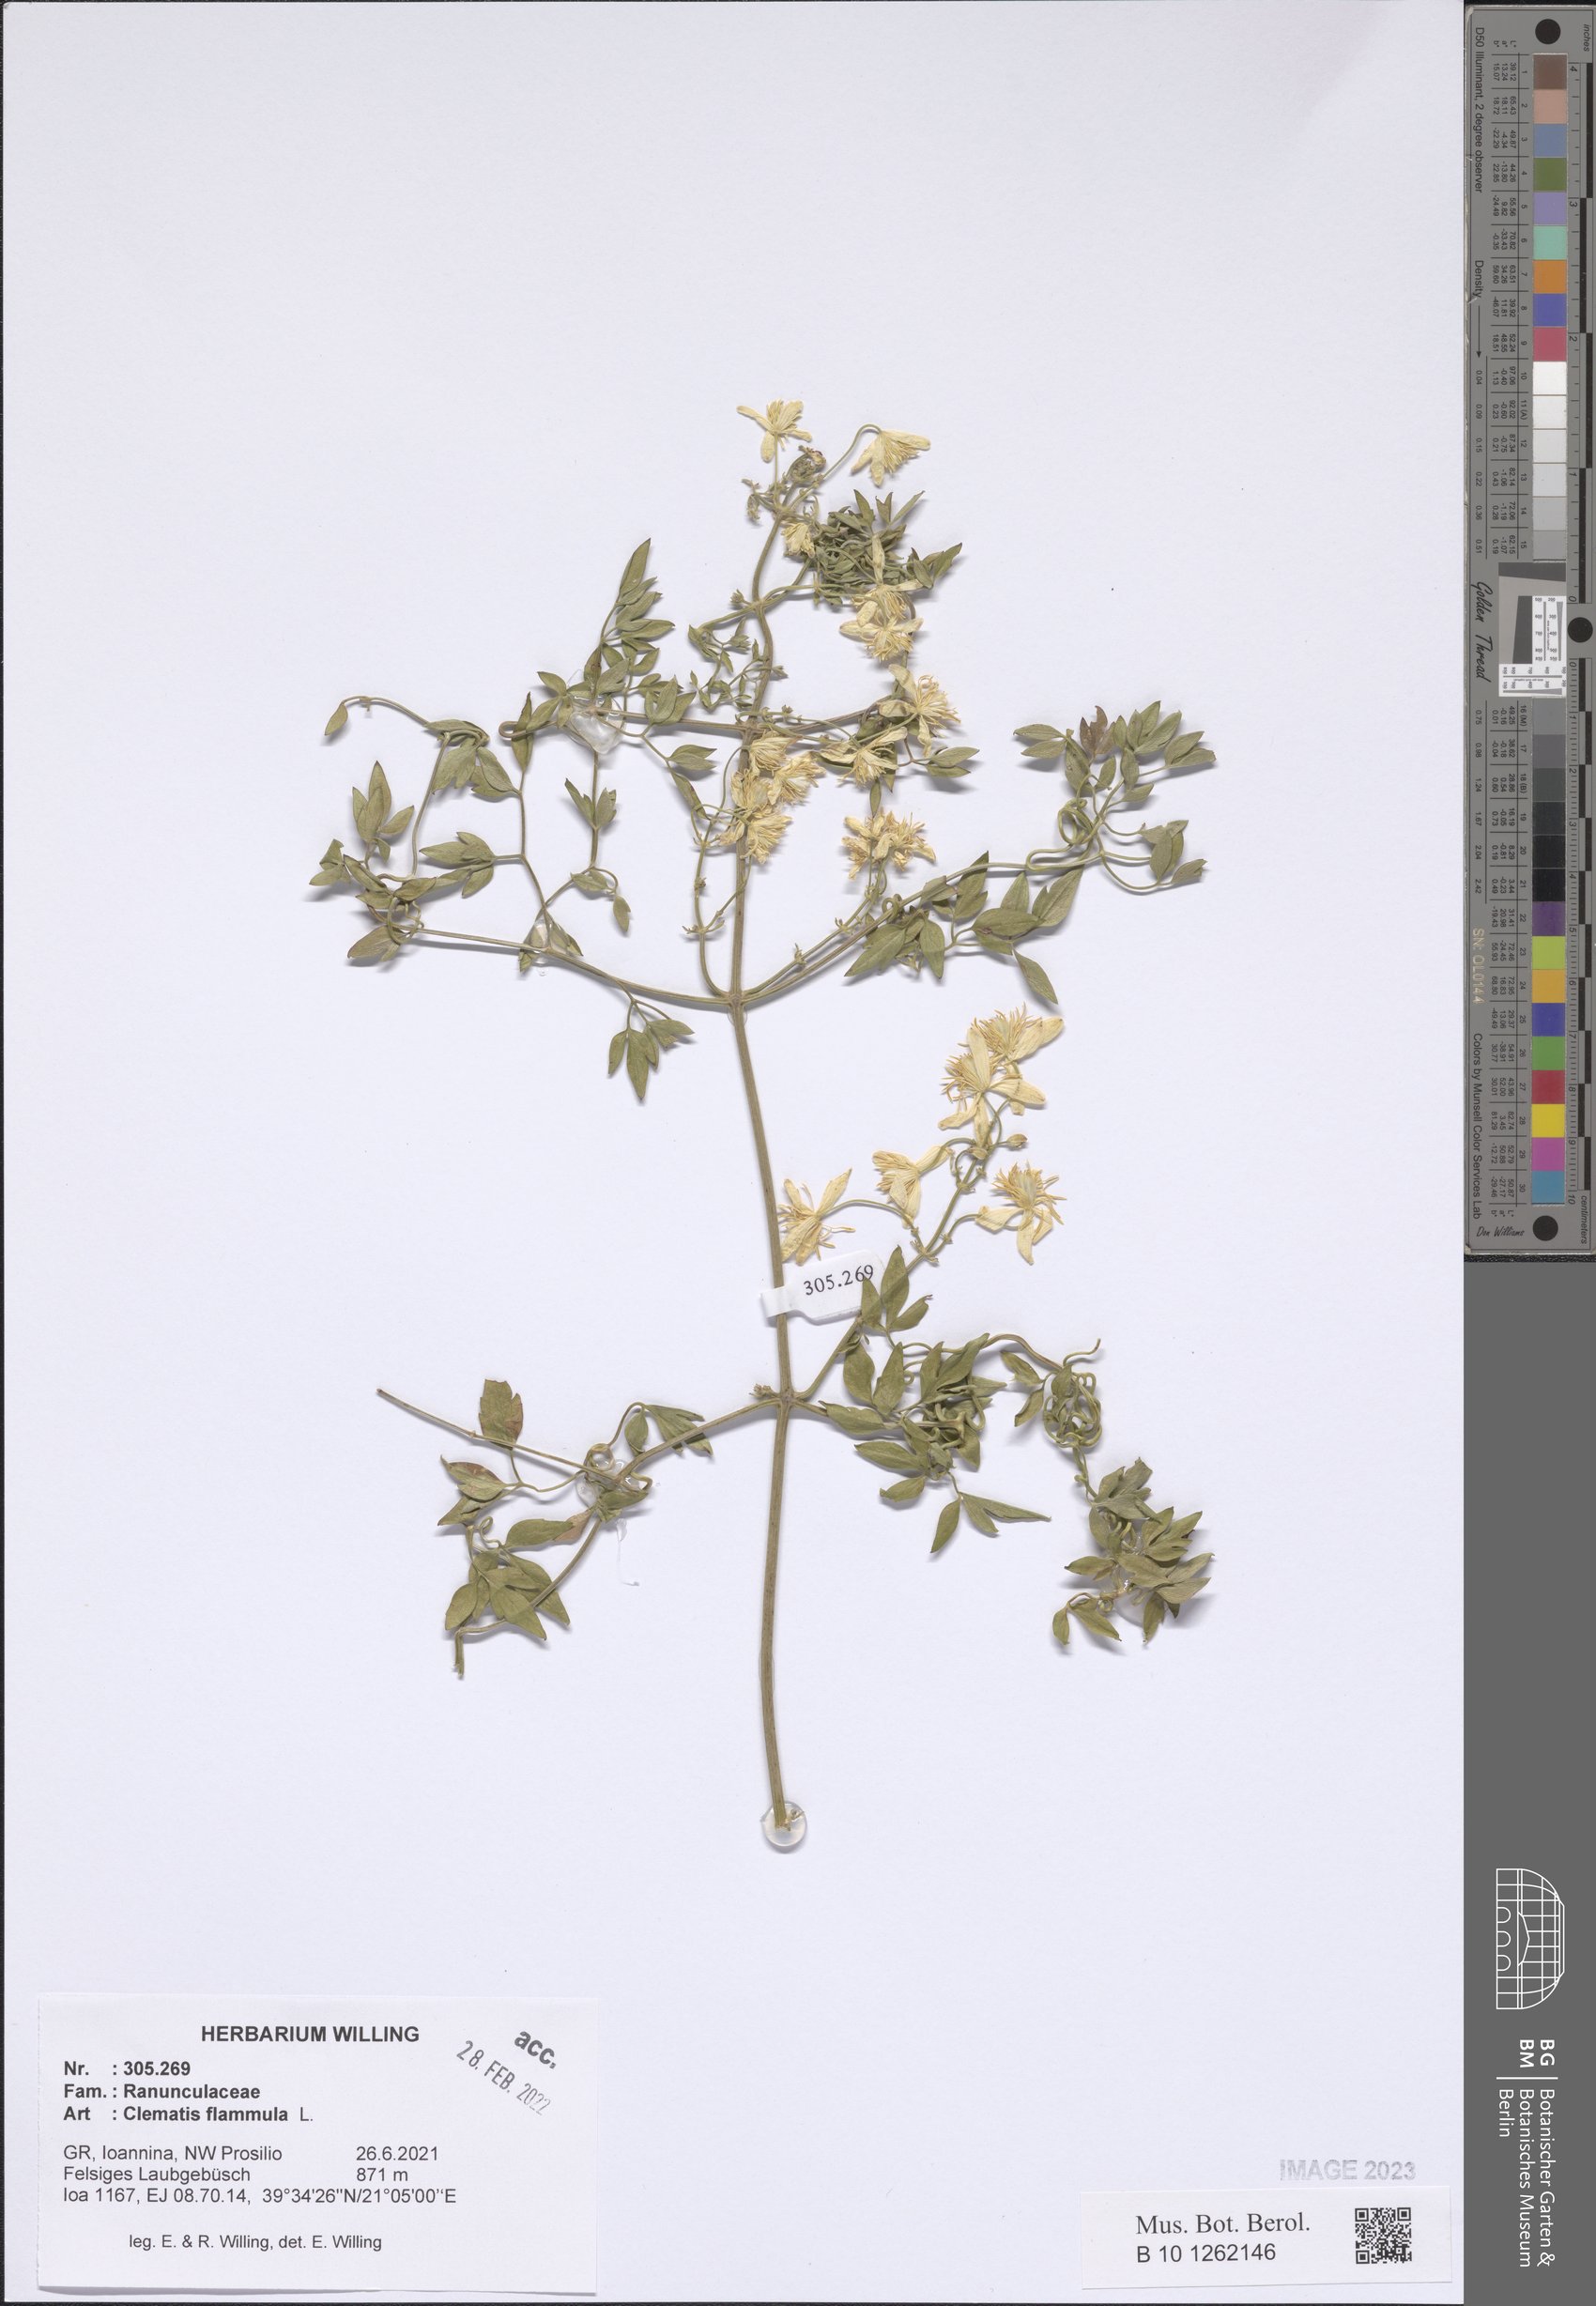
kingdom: Plantae
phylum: Tracheophyta
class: Magnoliopsida
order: Ranunculales
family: Ranunculaceae
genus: Clematis
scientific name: Clematis flammula
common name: Virgin's-bower
